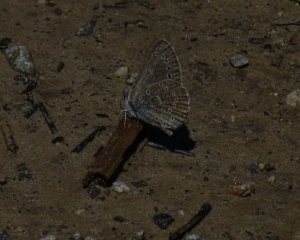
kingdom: Animalia
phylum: Arthropoda
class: Insecta
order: Lepidoptera
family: Lycaenidae
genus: Glaucopsyche
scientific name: Glaucopsyche lygdamus
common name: Silvery Blue
